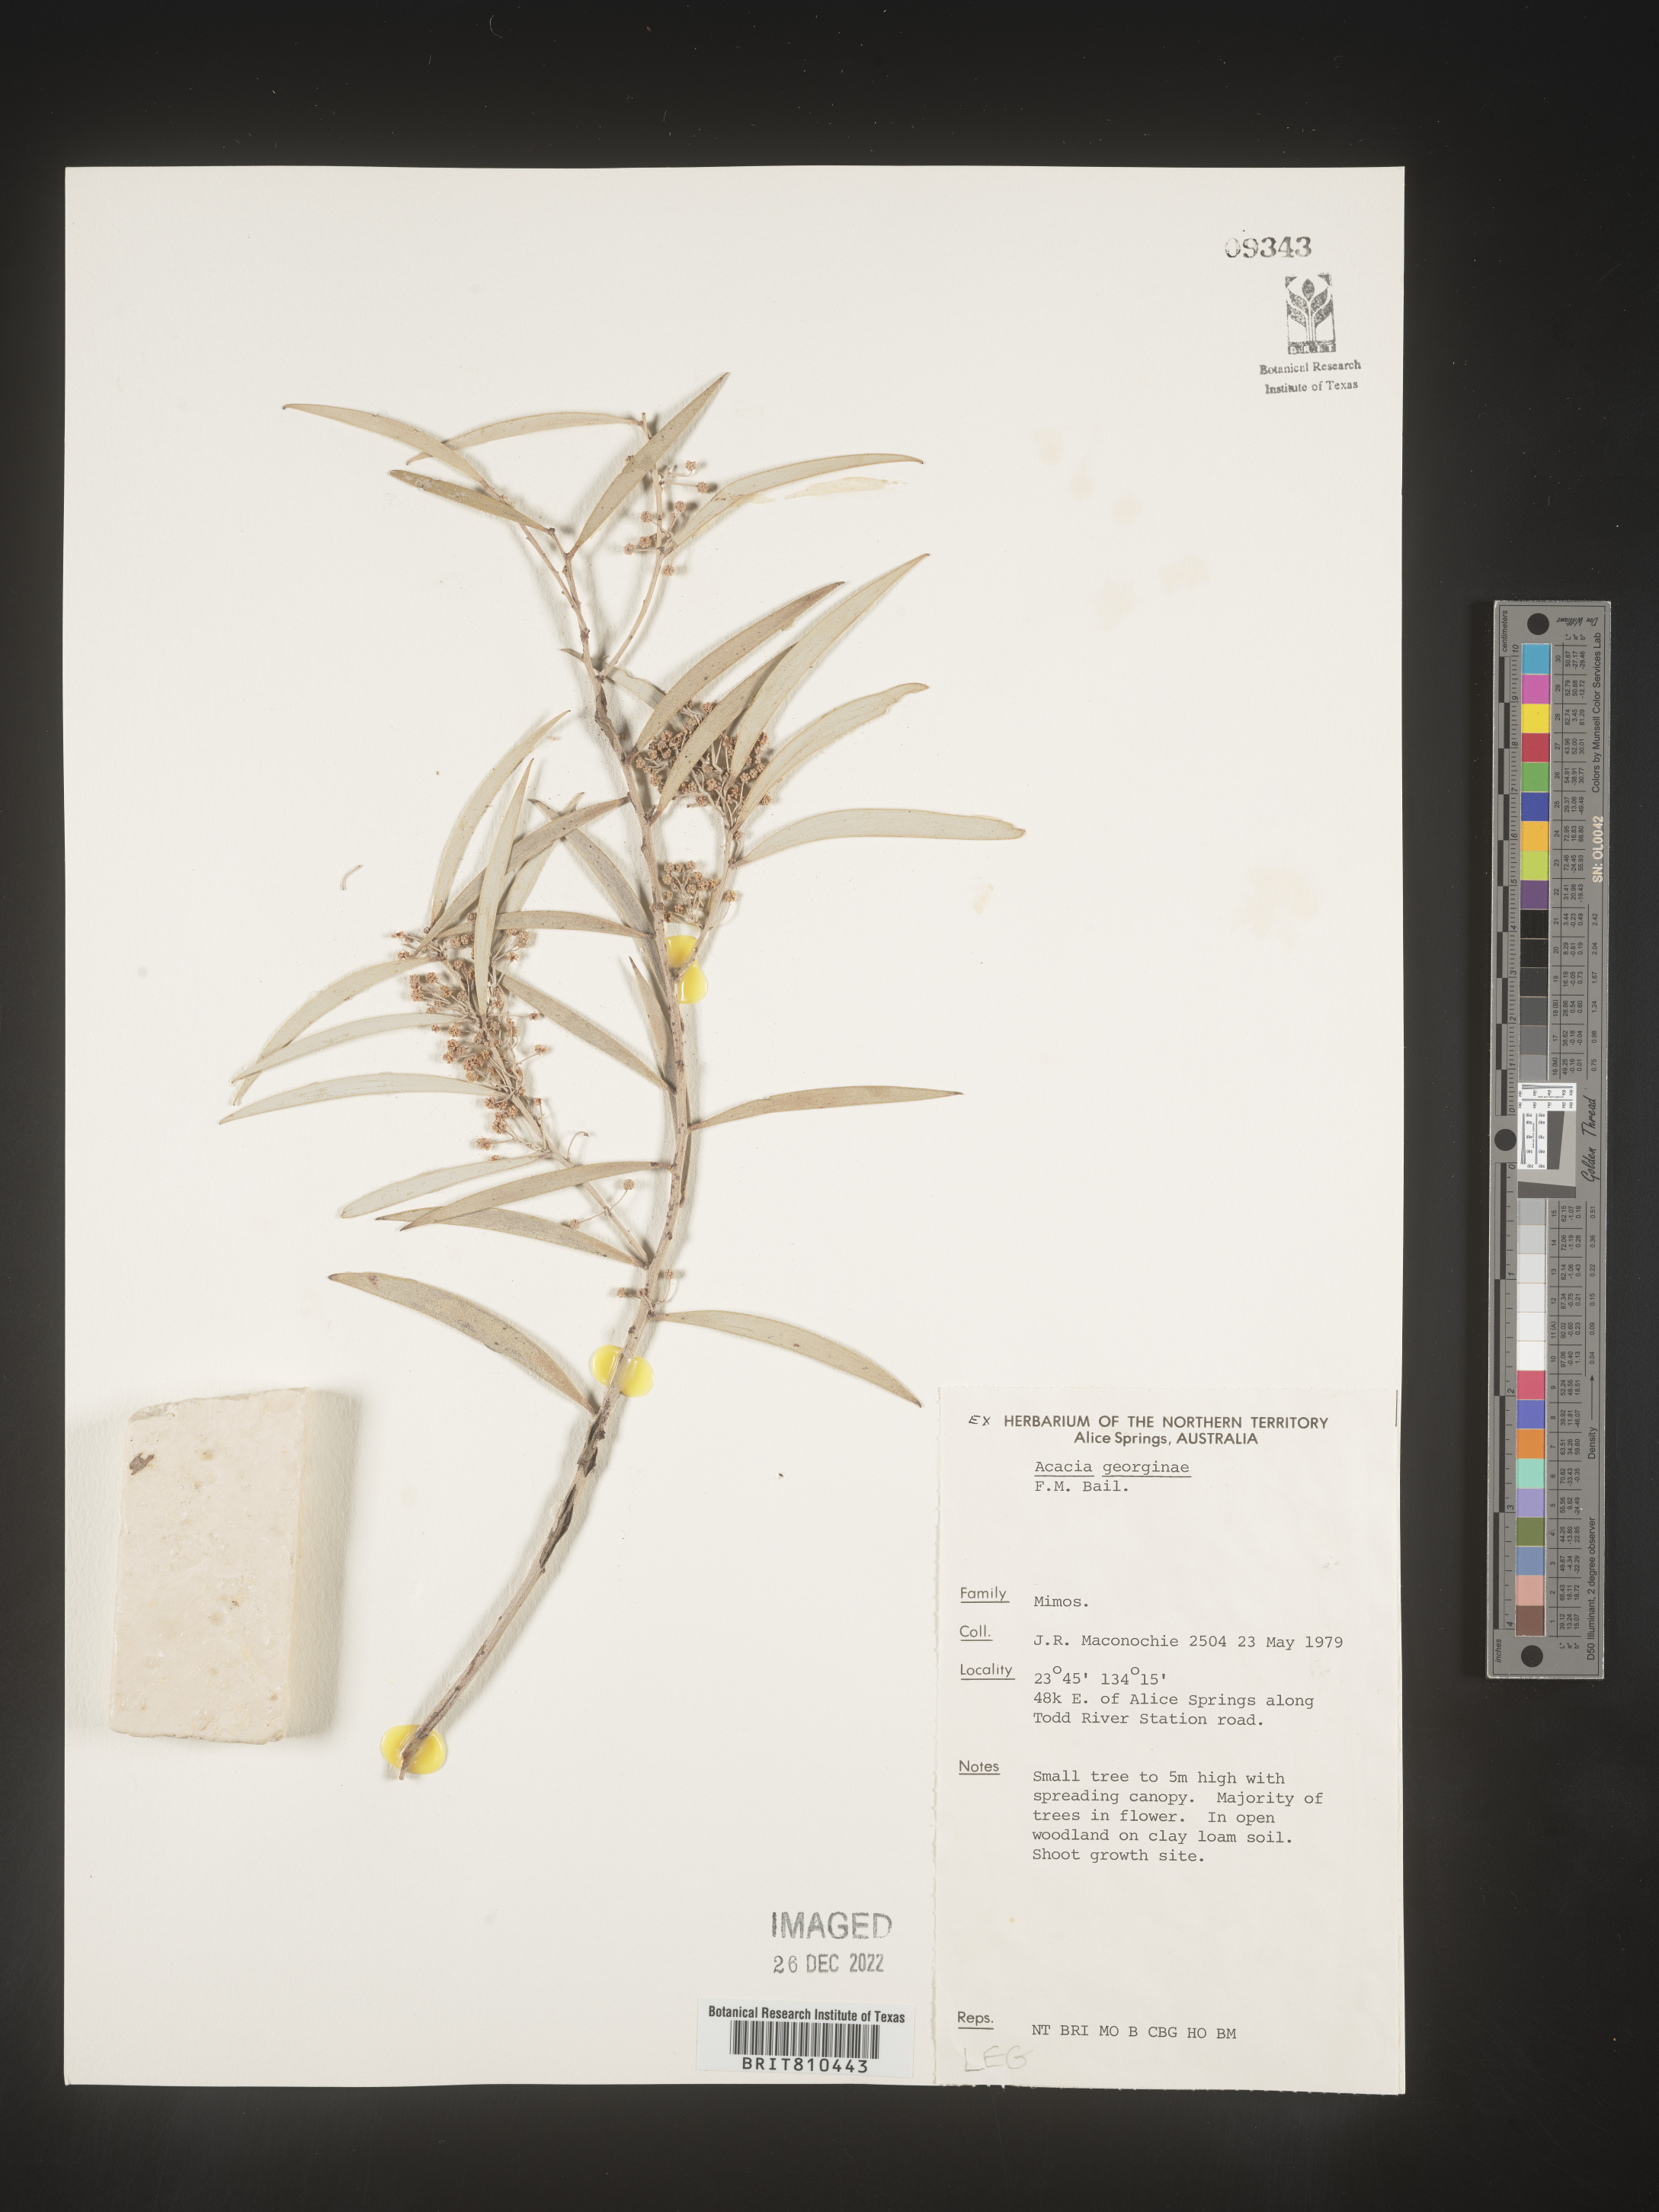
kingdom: Plantae
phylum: Tracheophyta
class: Magnoliopsida
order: Fabales
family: Fabaceae
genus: Acacia
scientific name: Acacia
